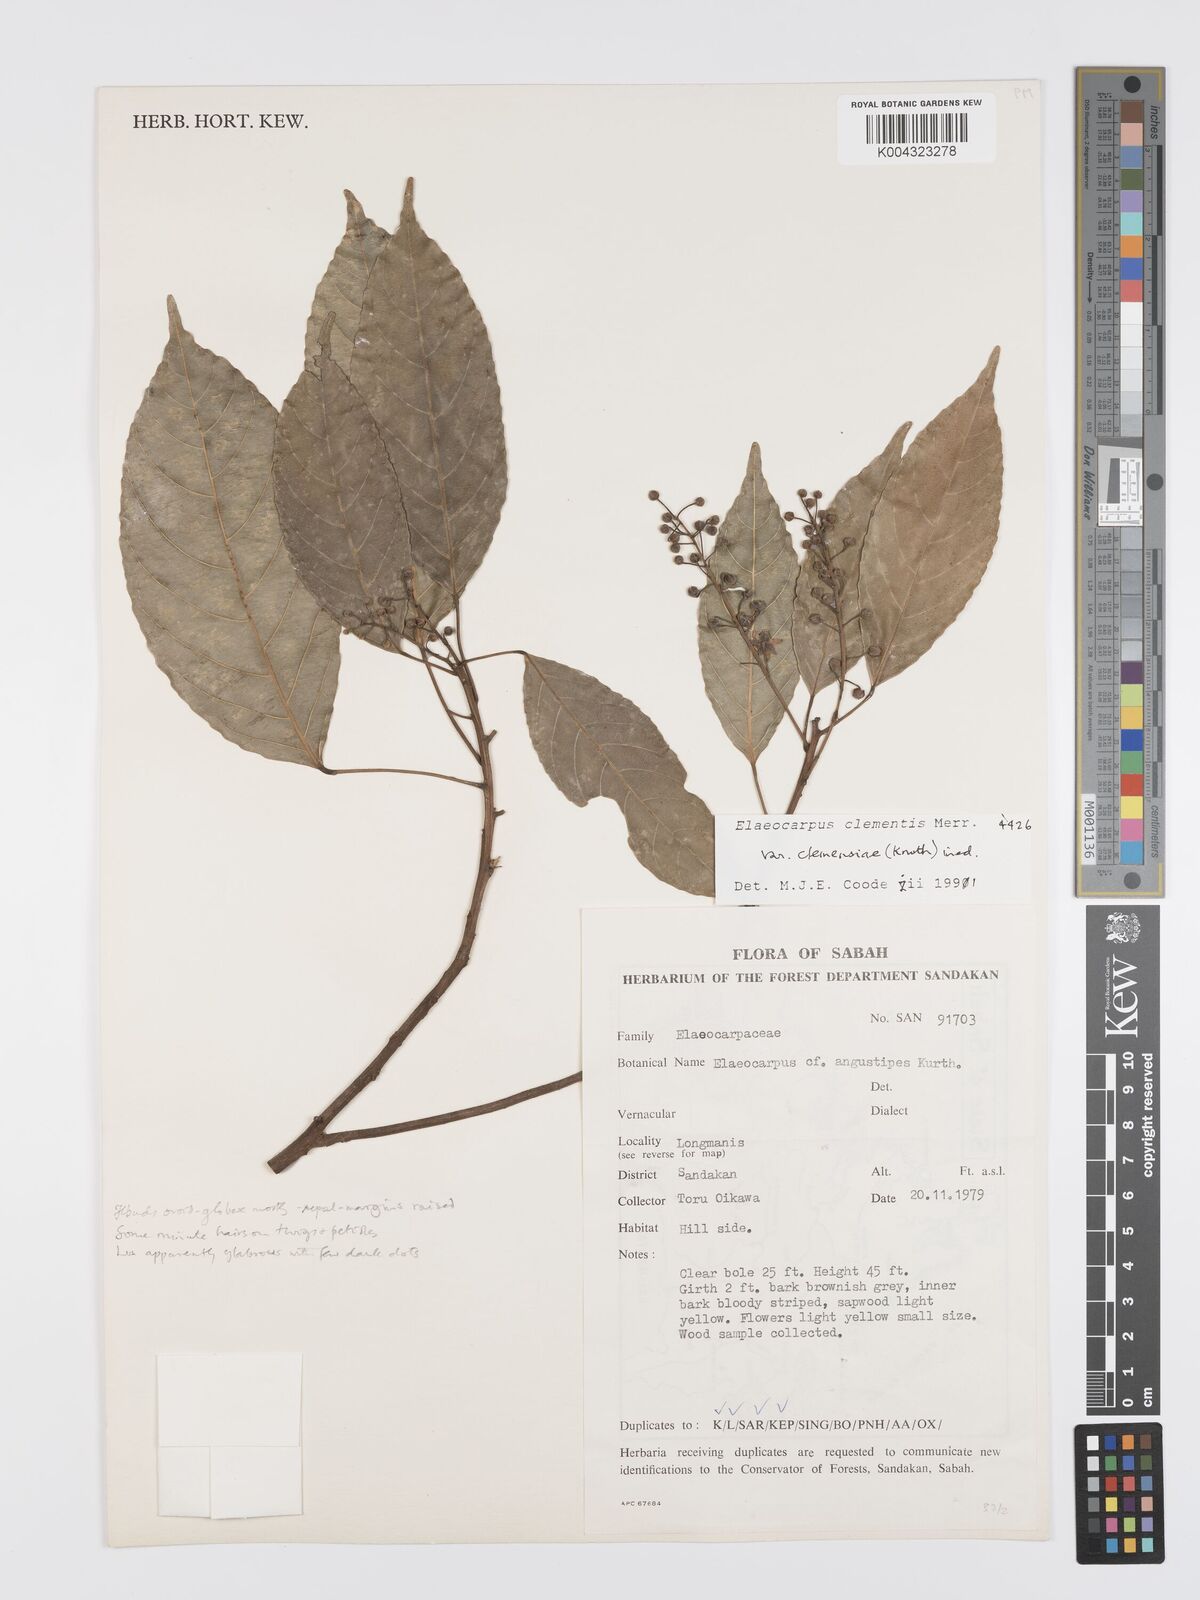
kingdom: Plantae
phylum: Tracheophyta
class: Magnoliopsida
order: Oxalidales
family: Elaeocarpaceae
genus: Elaeocarpus
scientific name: Elaeocarpus clementis
